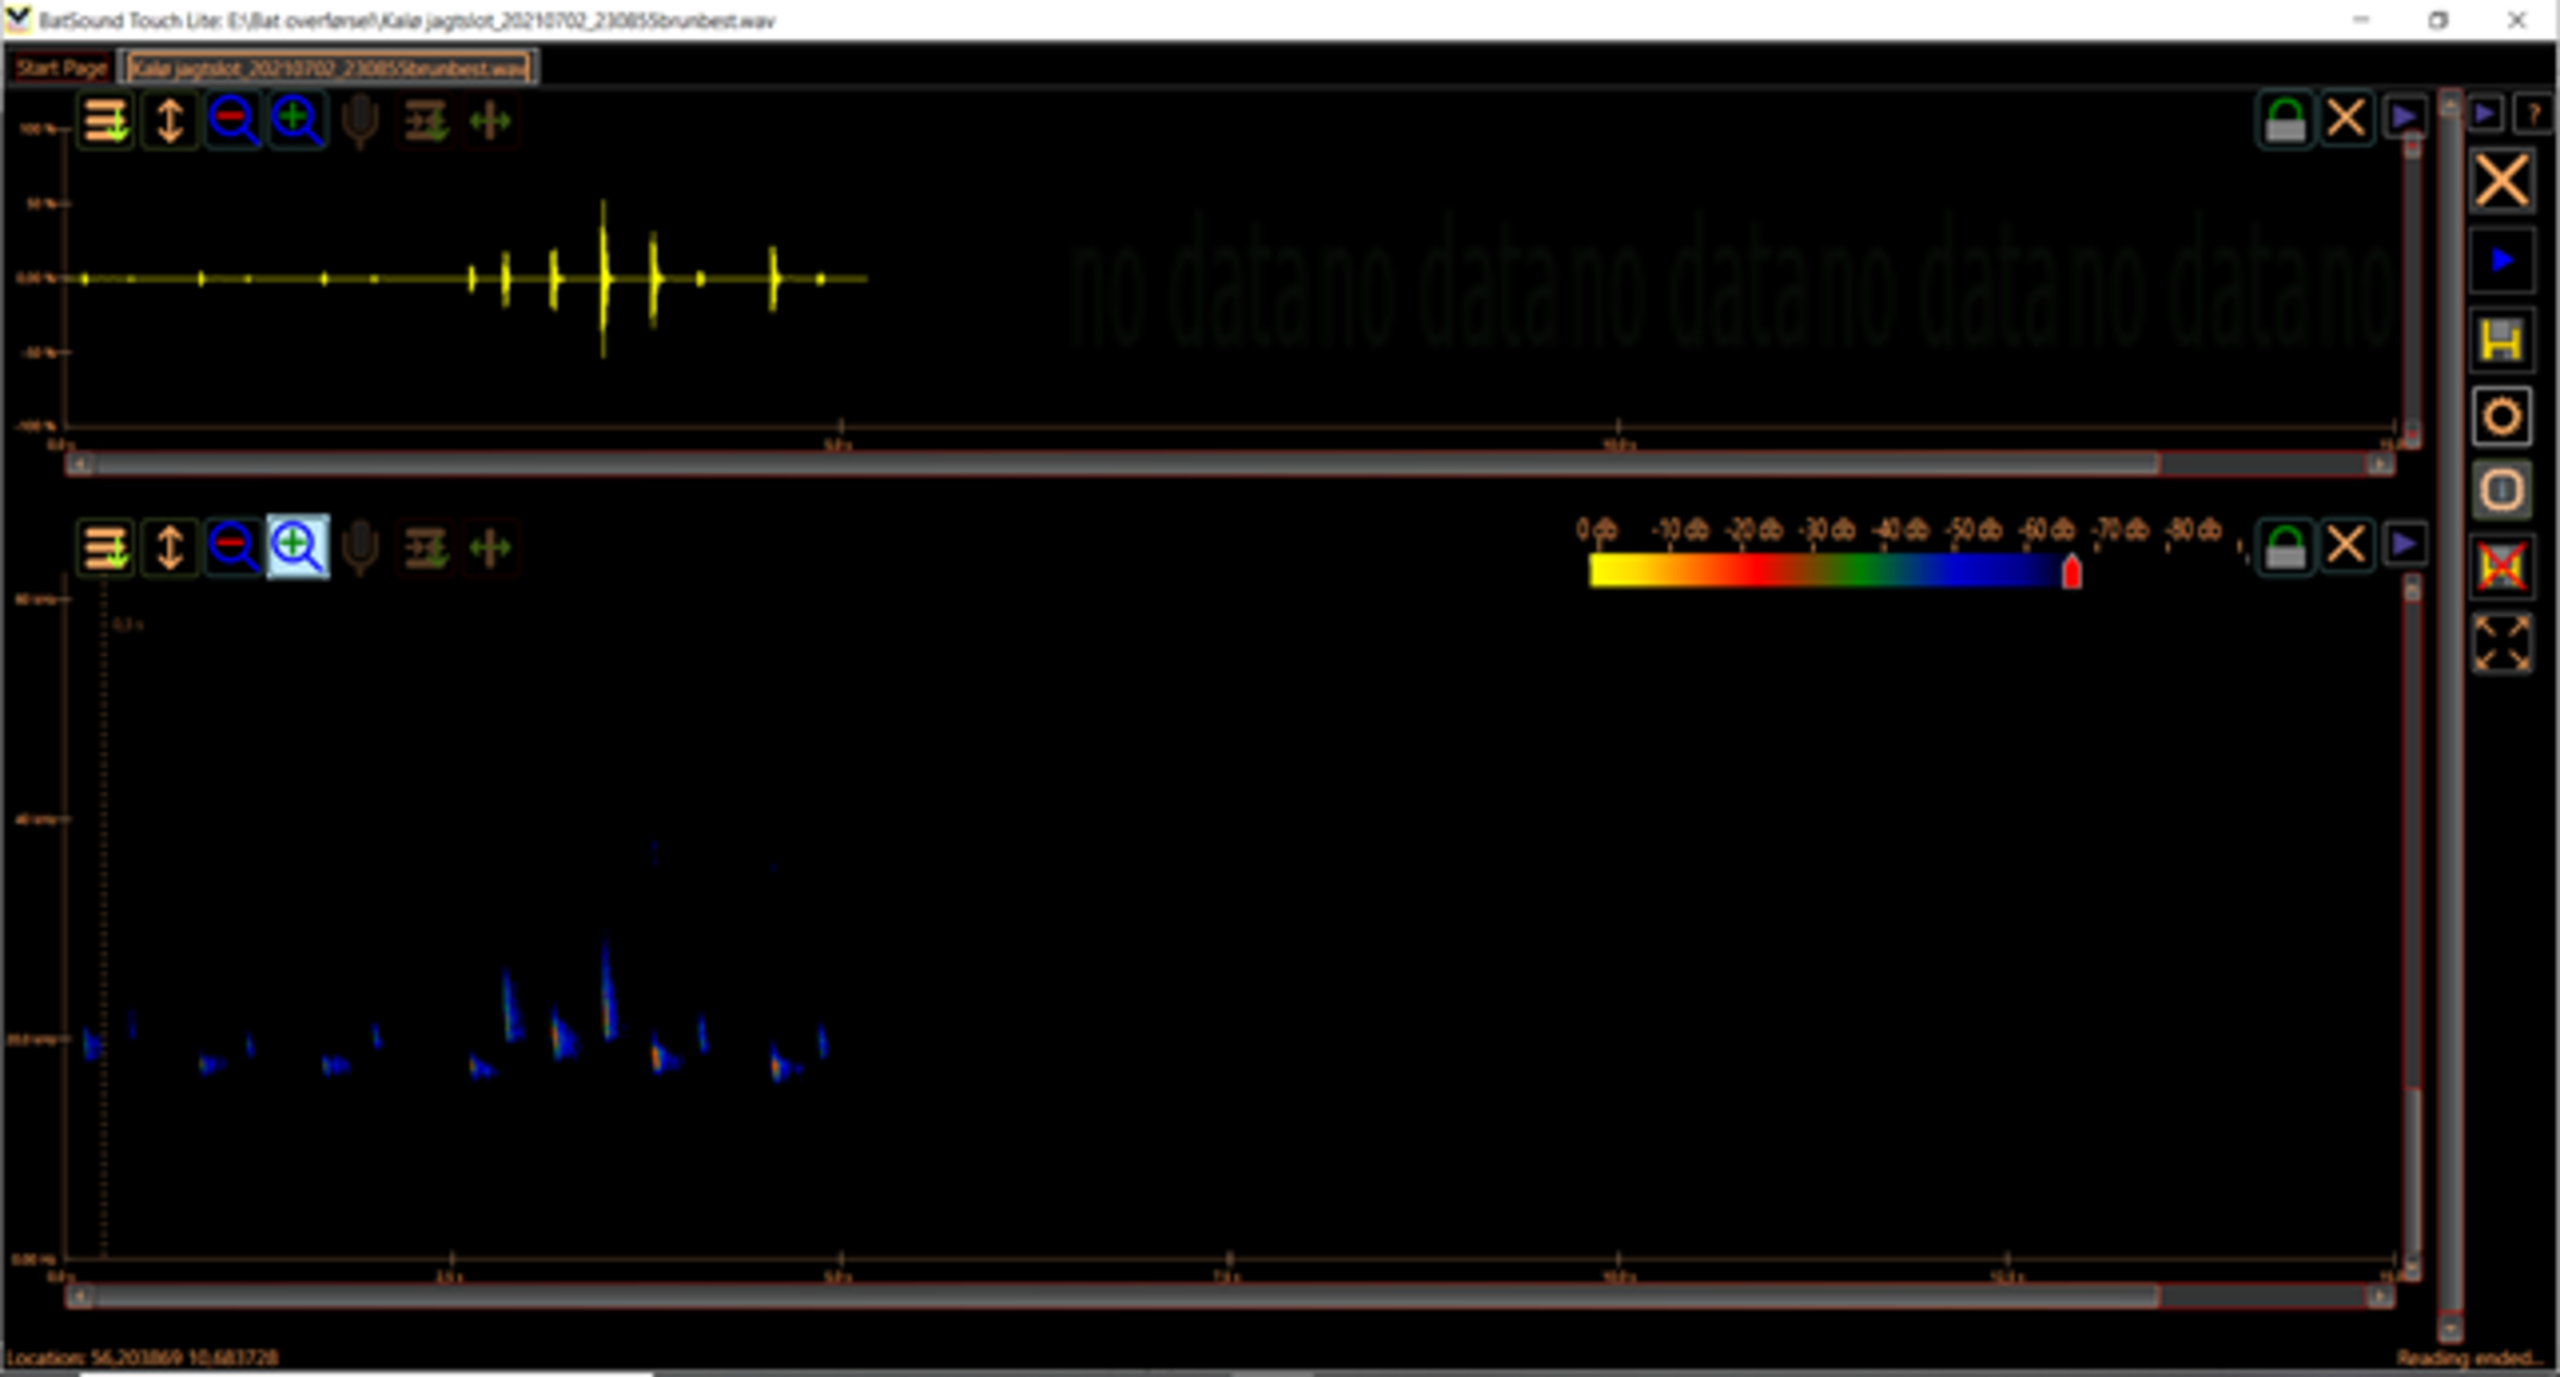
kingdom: Animalia
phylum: Chordata
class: Mammalia
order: Chiroptera
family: Vespertilionidae
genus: Nyctalus
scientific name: Nyctalus noctula
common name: Brunflagermus
